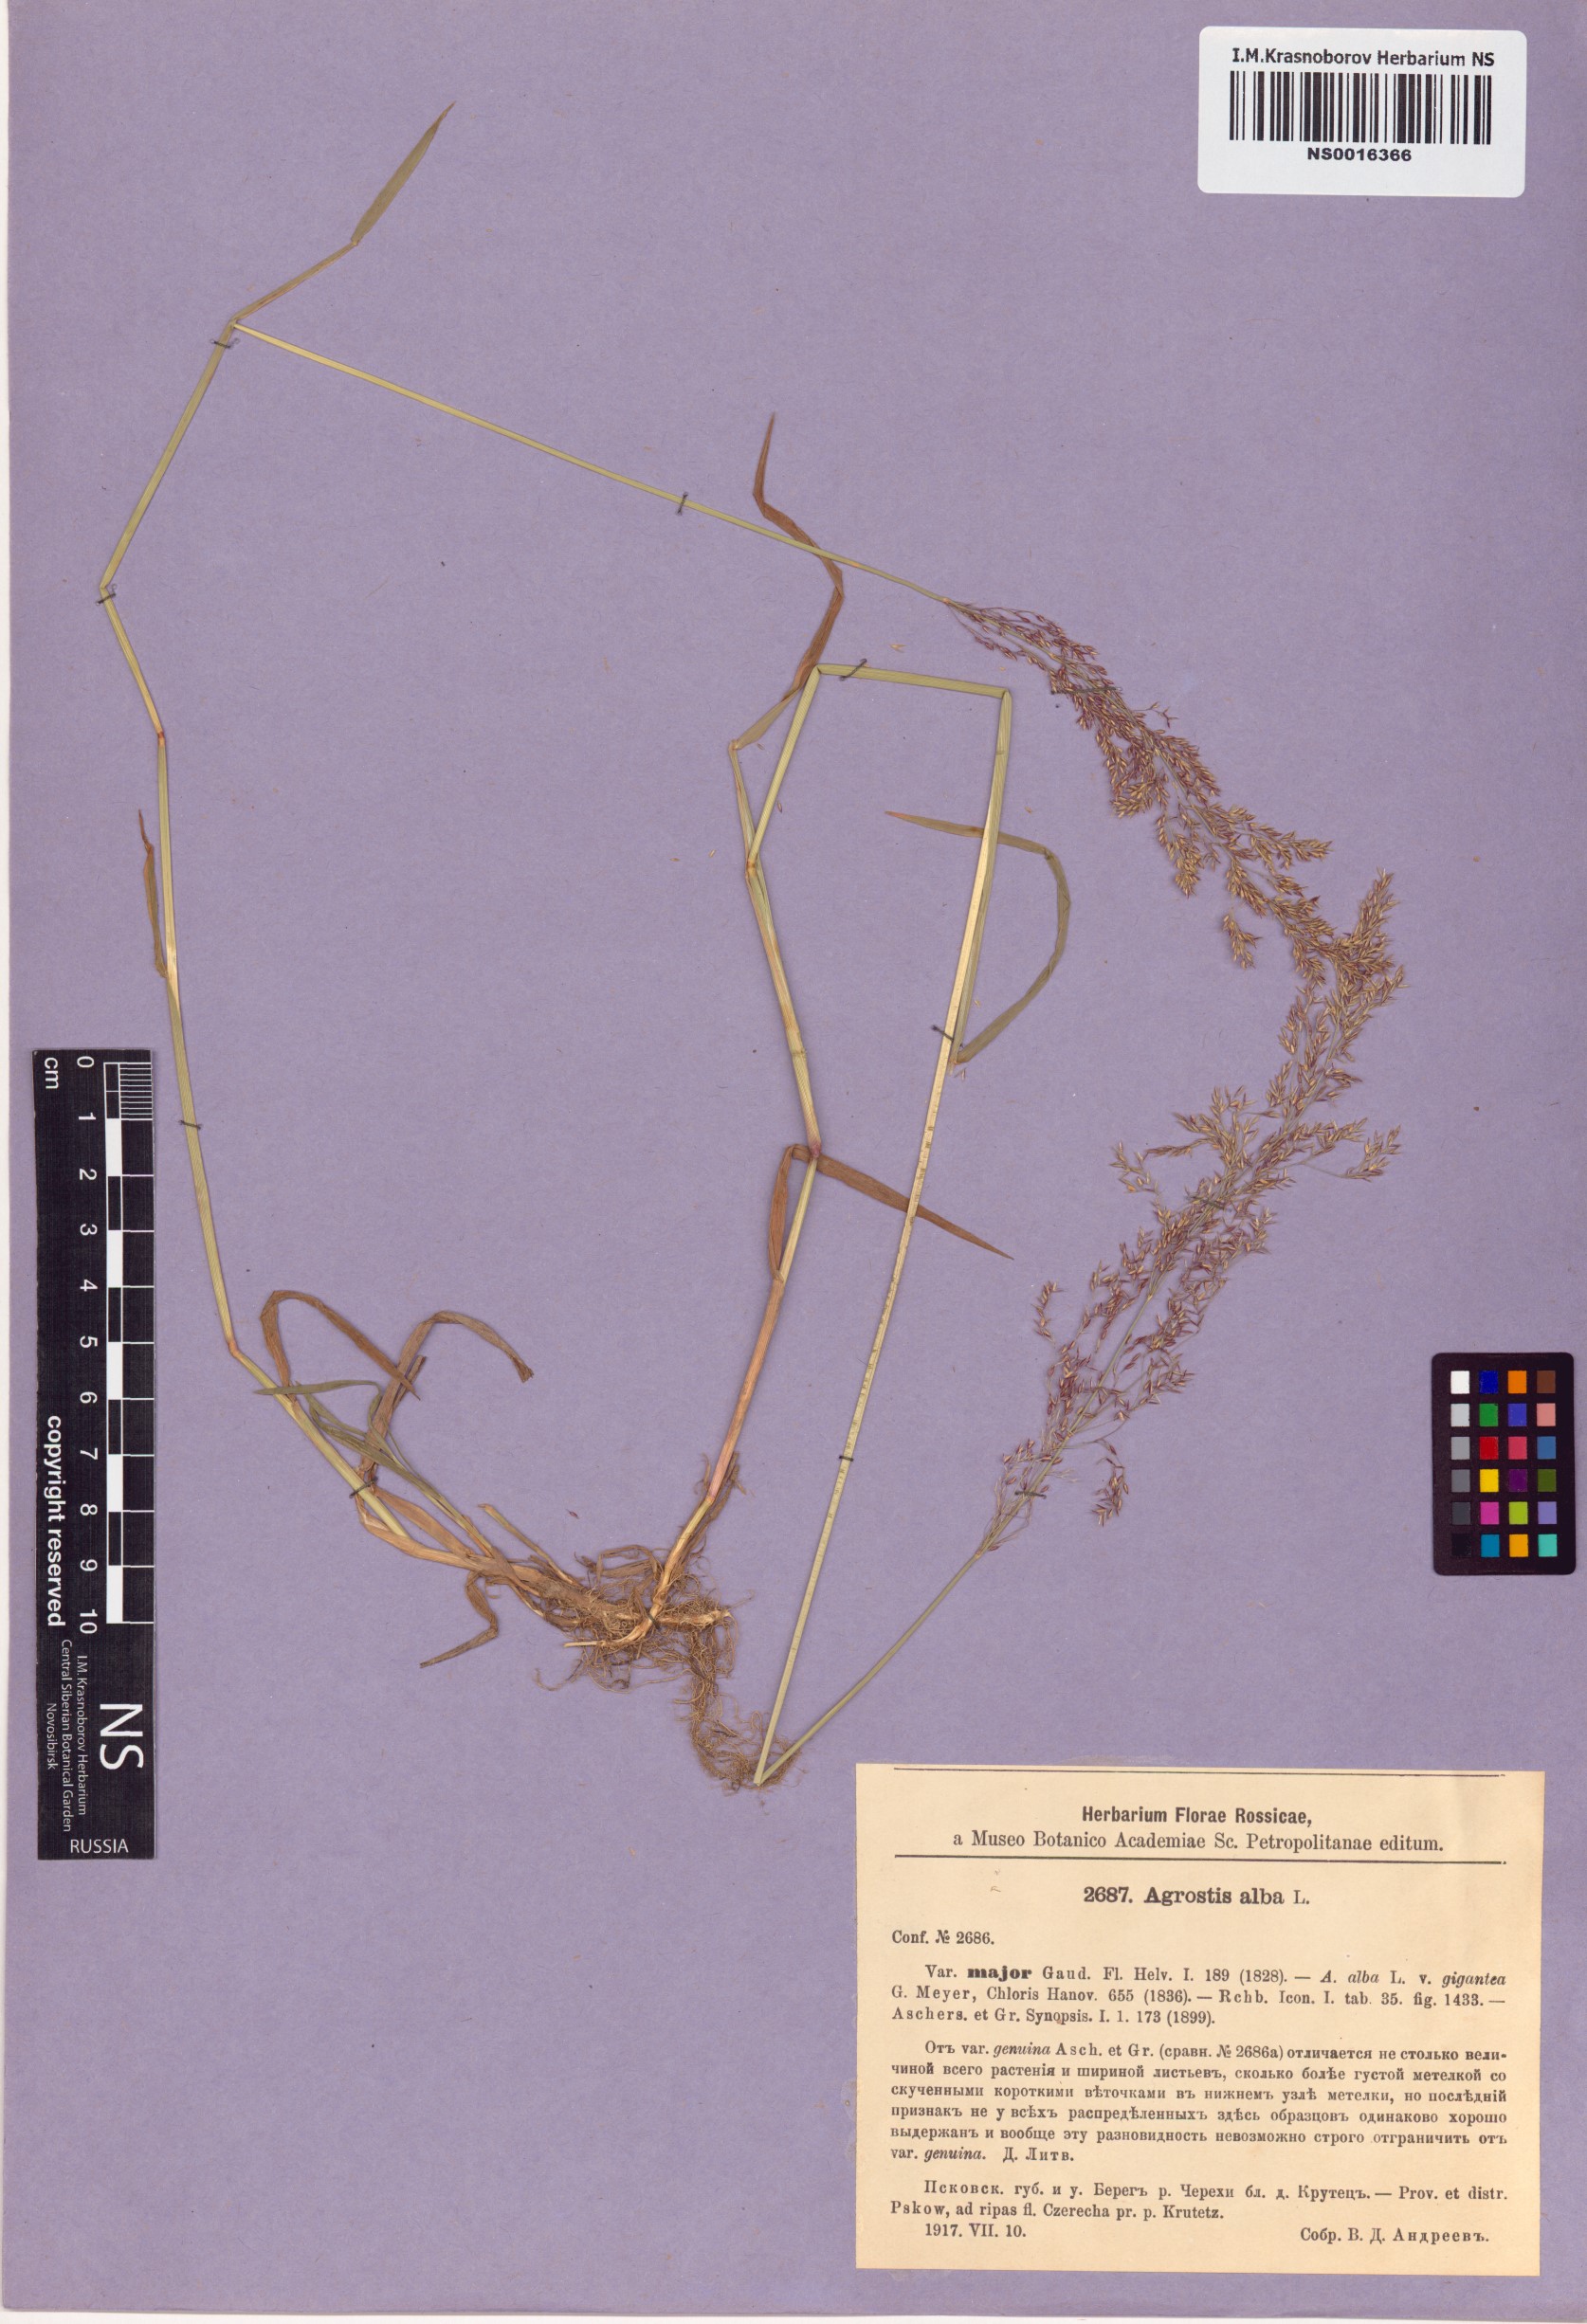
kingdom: Plantae
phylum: Tracheophyta
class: Liliopsida
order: Poales
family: Poaceae
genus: Agrostis
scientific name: Agrostis gigantea
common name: Black bent
